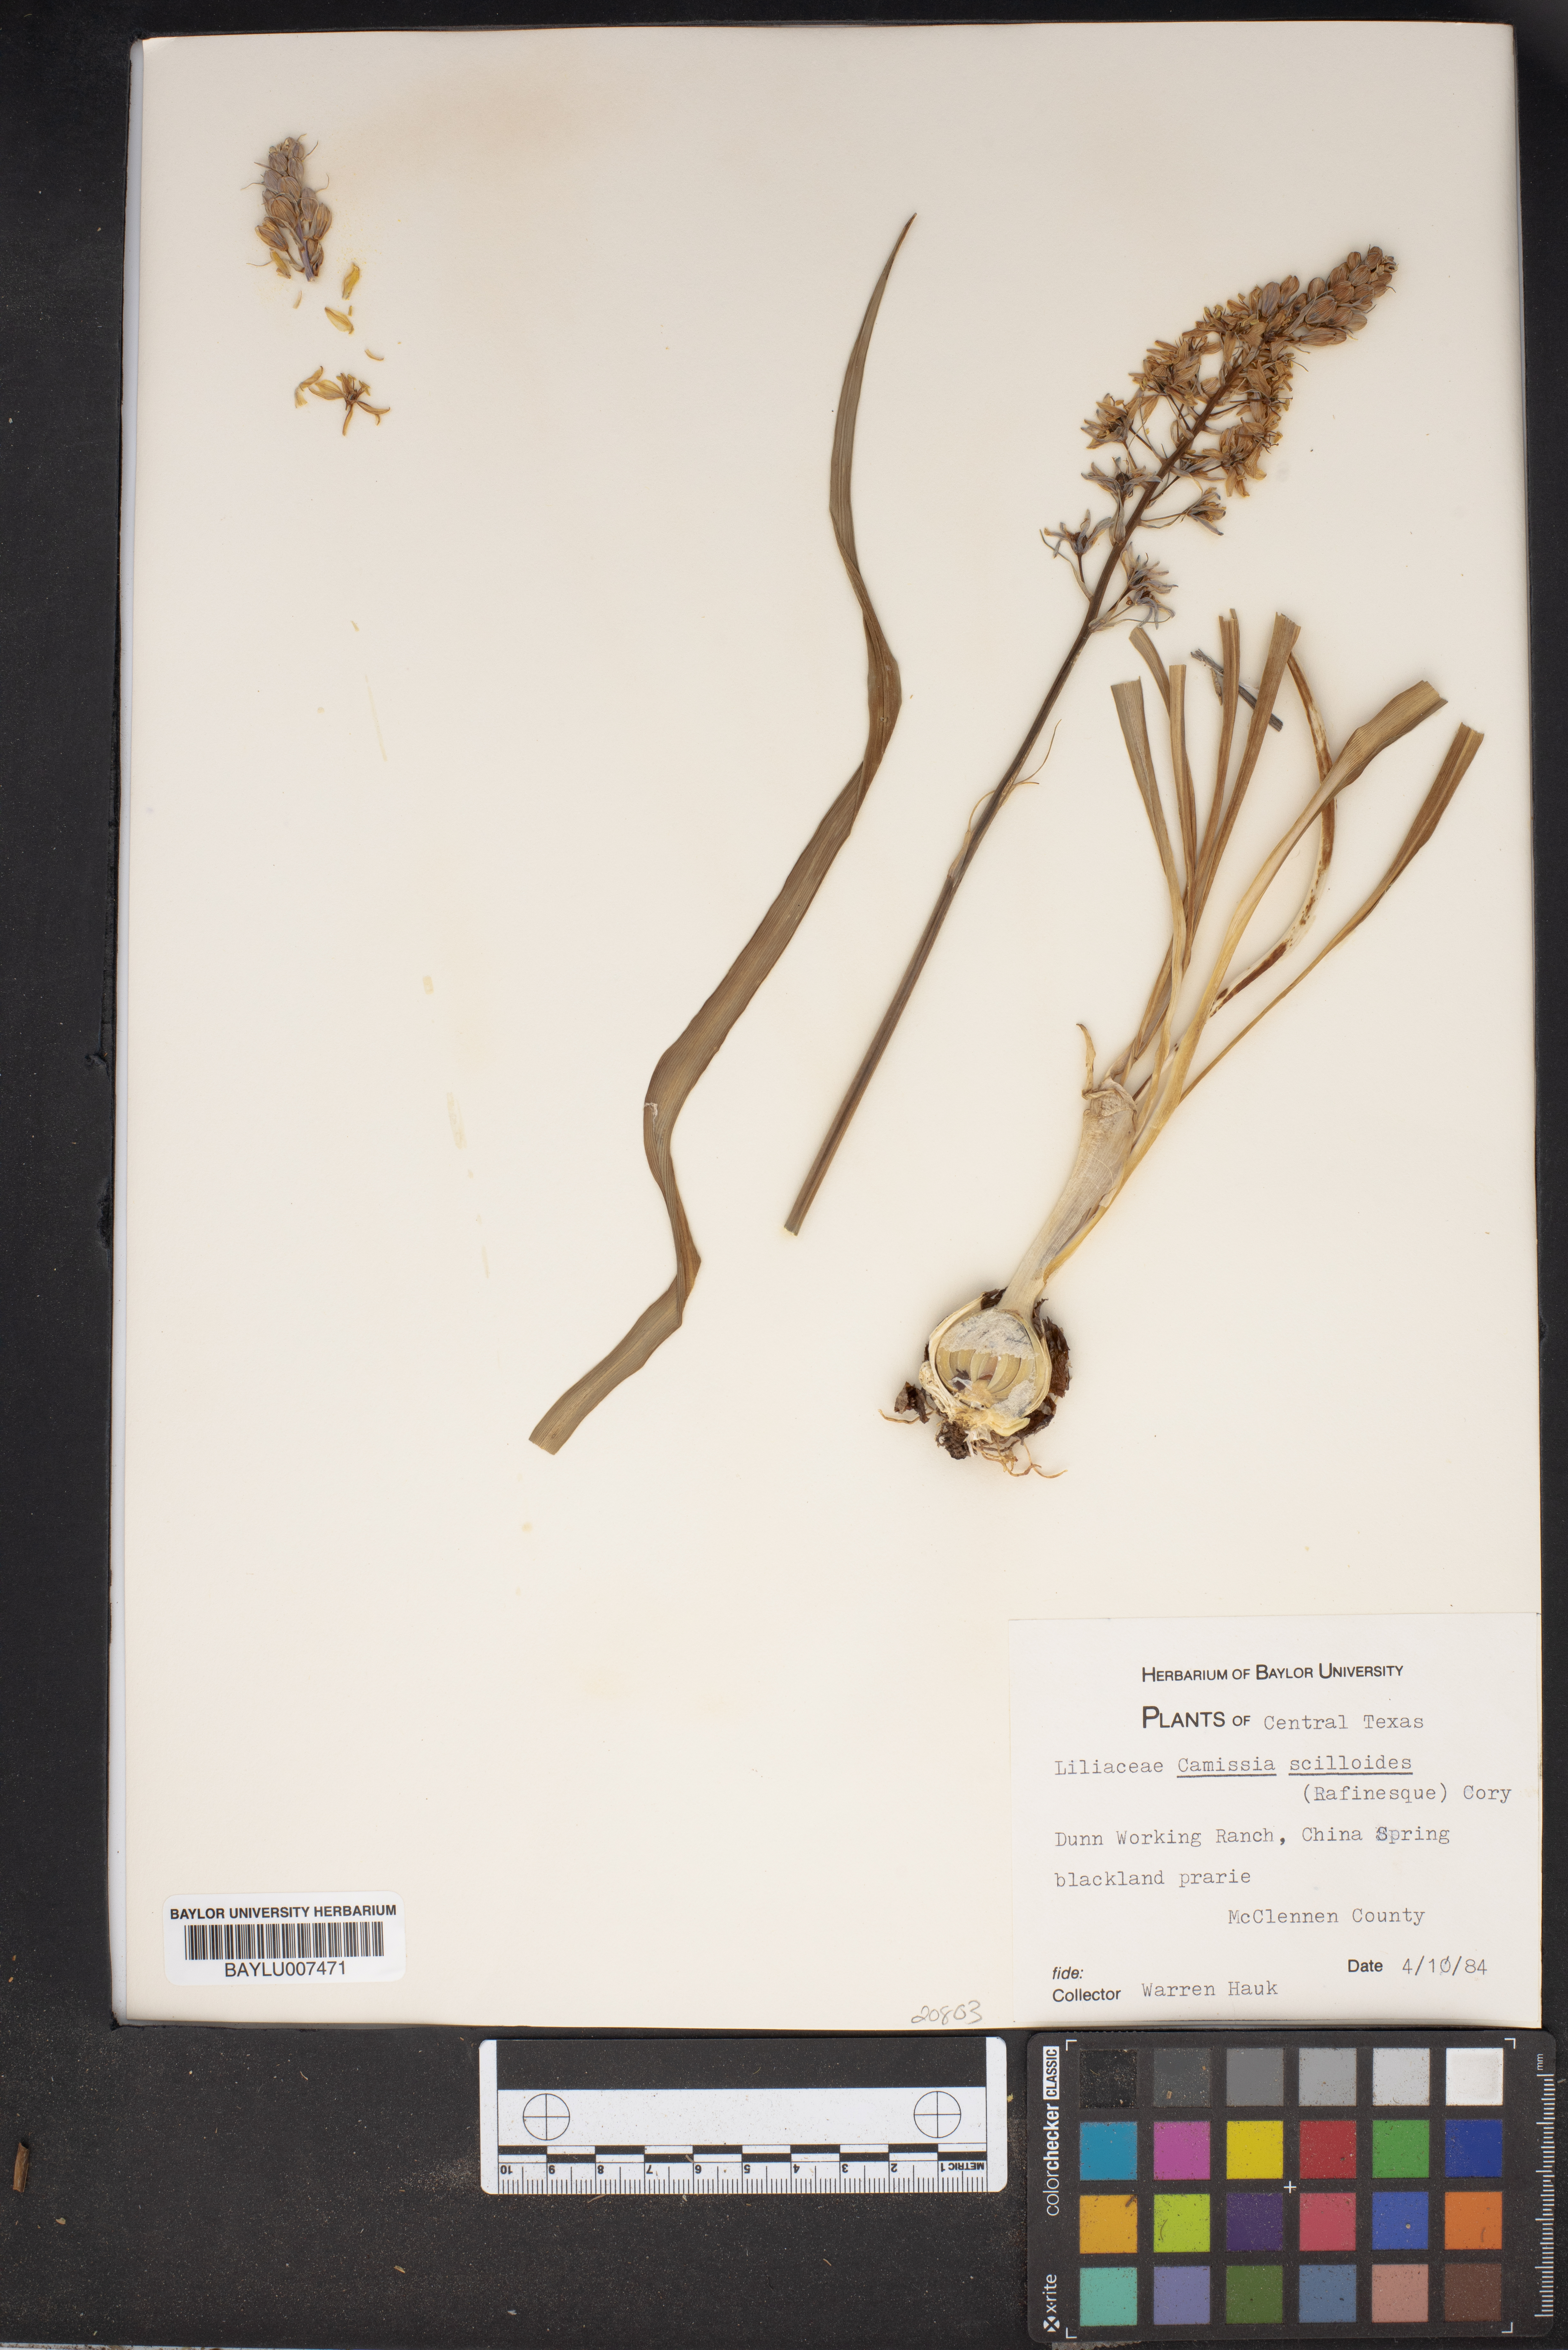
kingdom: Plantae
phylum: Tracheophyta
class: Liliopsida
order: Asparagales
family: Asparagaceae
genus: Camassia
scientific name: Camassia scilloides
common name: Wild hyacinth
